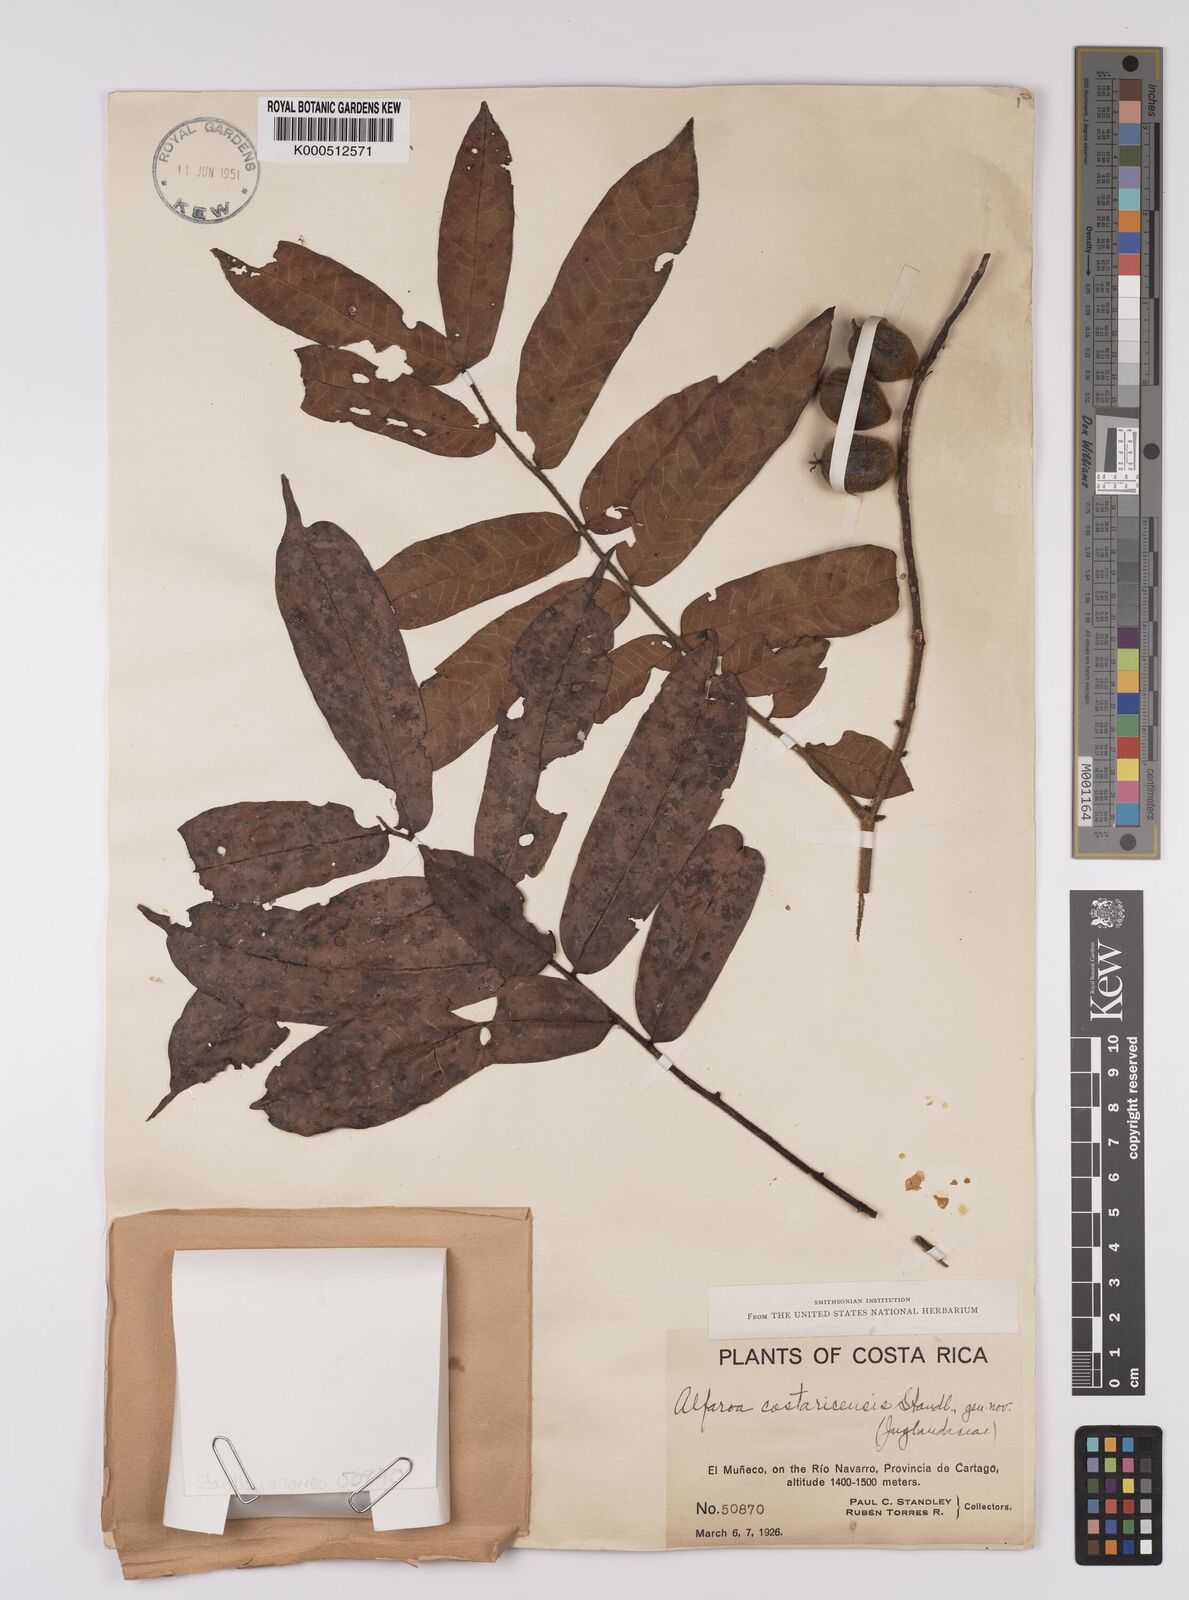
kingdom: Plantae
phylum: Tracheophyta
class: Magnoliopsida
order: Fagales
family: Juglandaceae
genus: Alfaroa
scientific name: Alfaroa costaricensis
